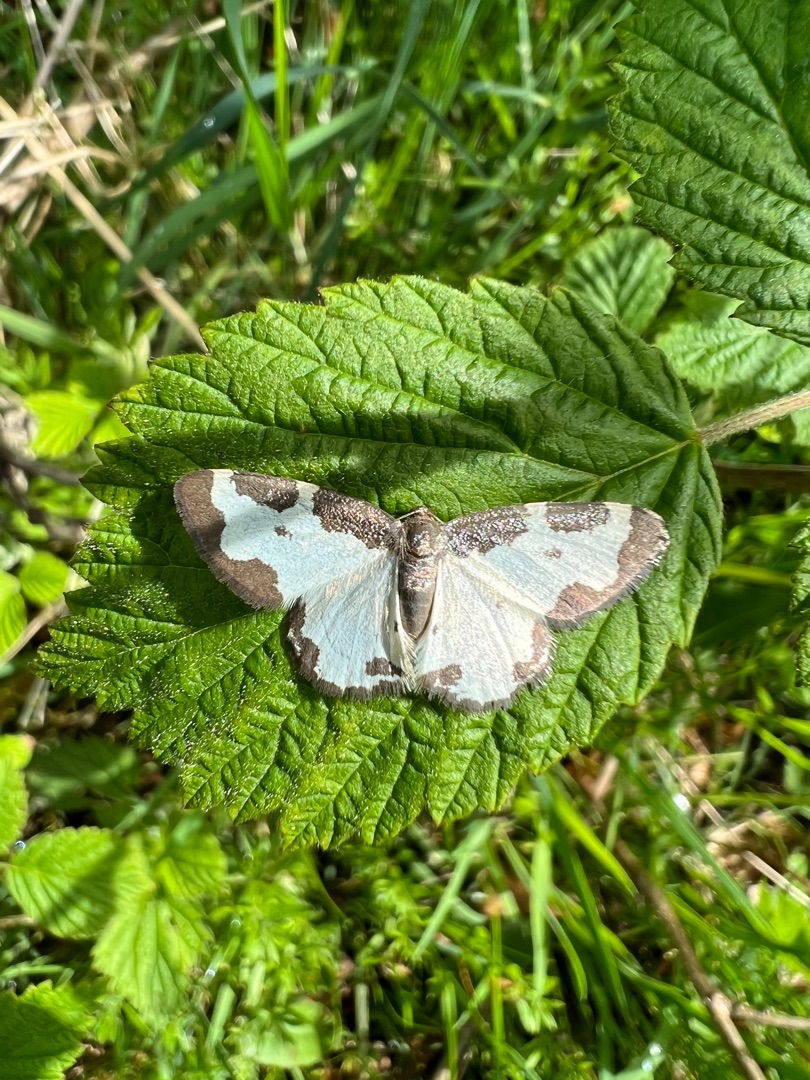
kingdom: Animalia
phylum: Arthropoda
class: Insecta
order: Lepidoptera
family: Geometridae
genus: Lomaspilis
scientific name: Lomaspilis marginata
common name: Sortrandet måler
